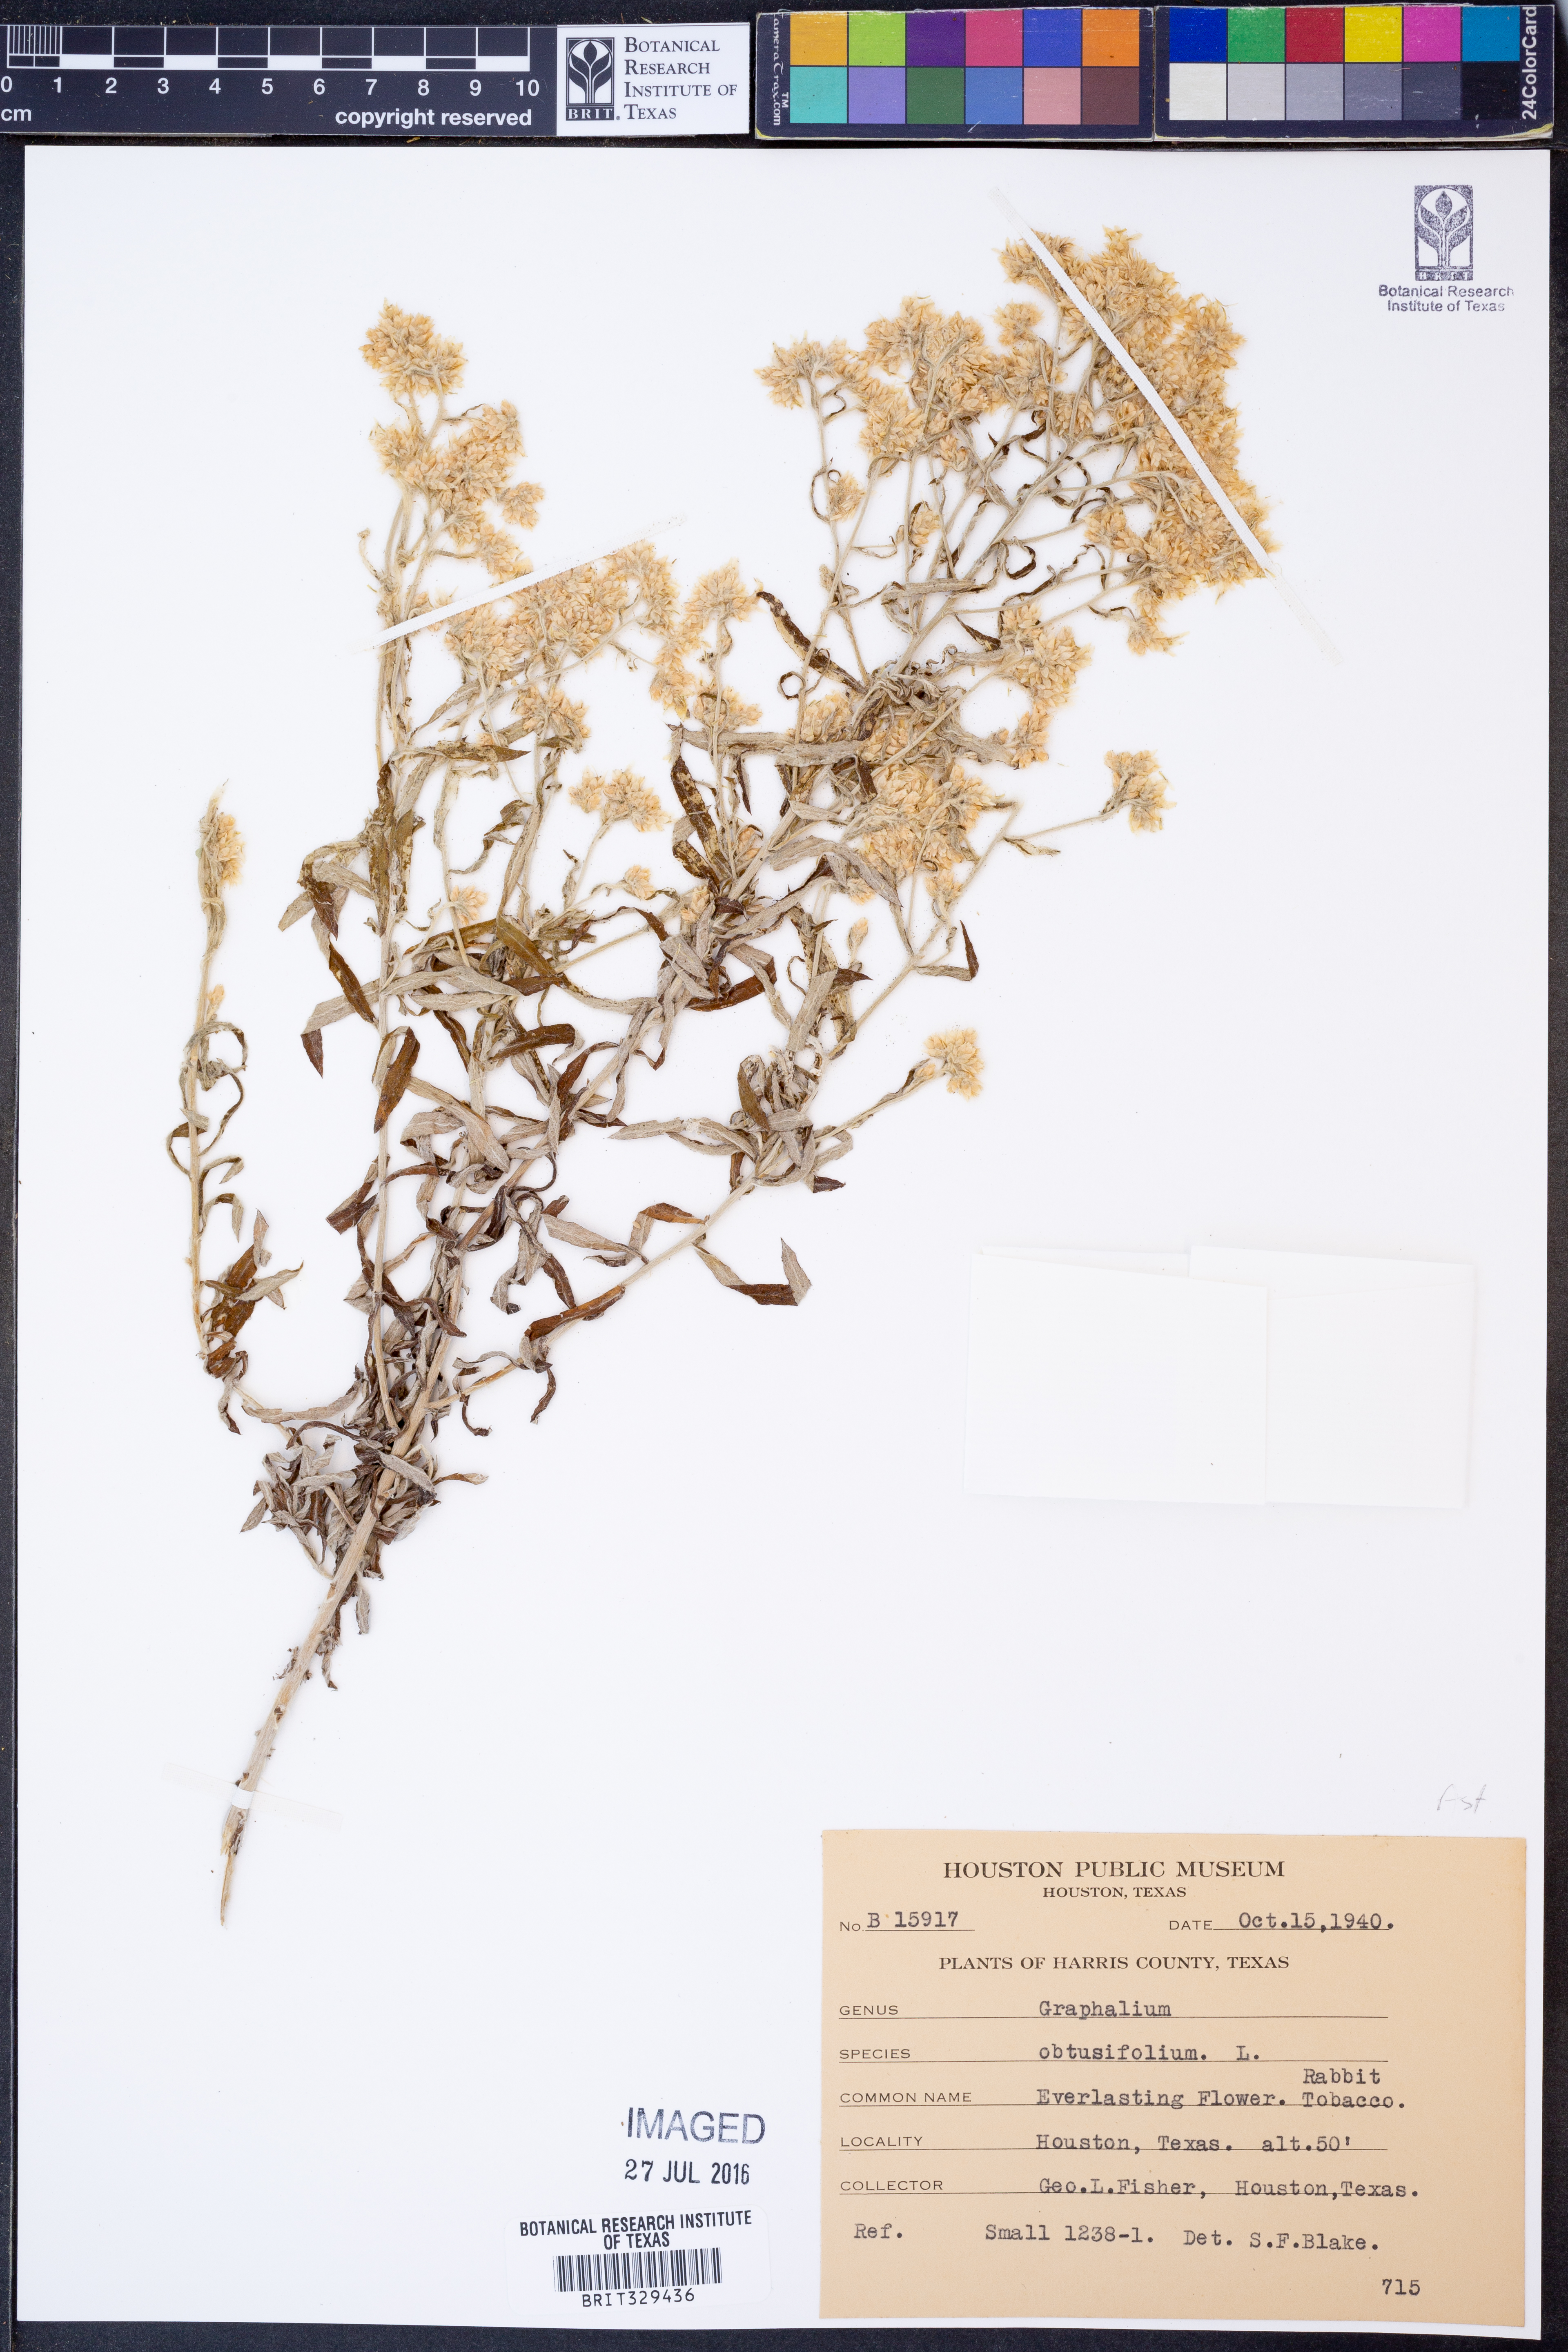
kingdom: Plantae
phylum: Tracheophyta
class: Magnoliopsida
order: Asterales
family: Asteraceae
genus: Pseudognaphalium
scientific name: Pseudognaphalium obtusifolium
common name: Eastern rabbit-tobacco
